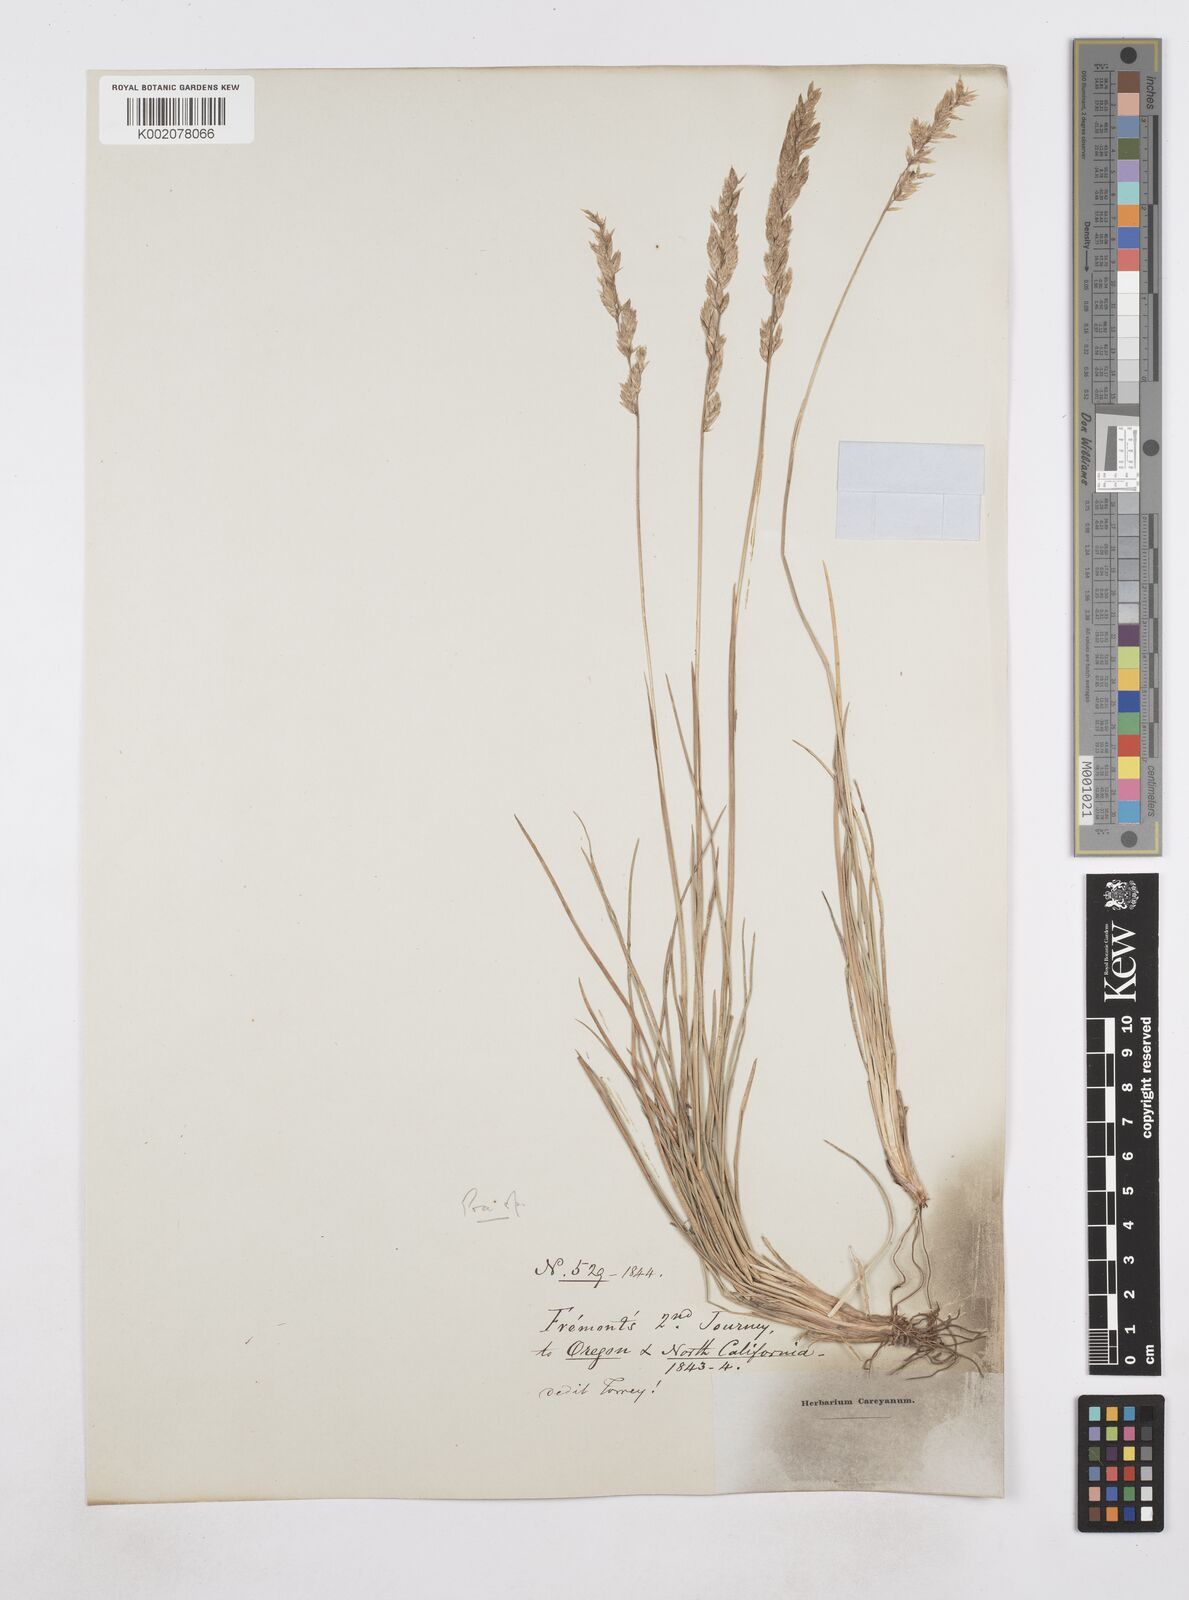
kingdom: Plantae
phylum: Tracheophyta
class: Liliopsida
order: Poales
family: Poaceae
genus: Poa
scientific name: Poa
